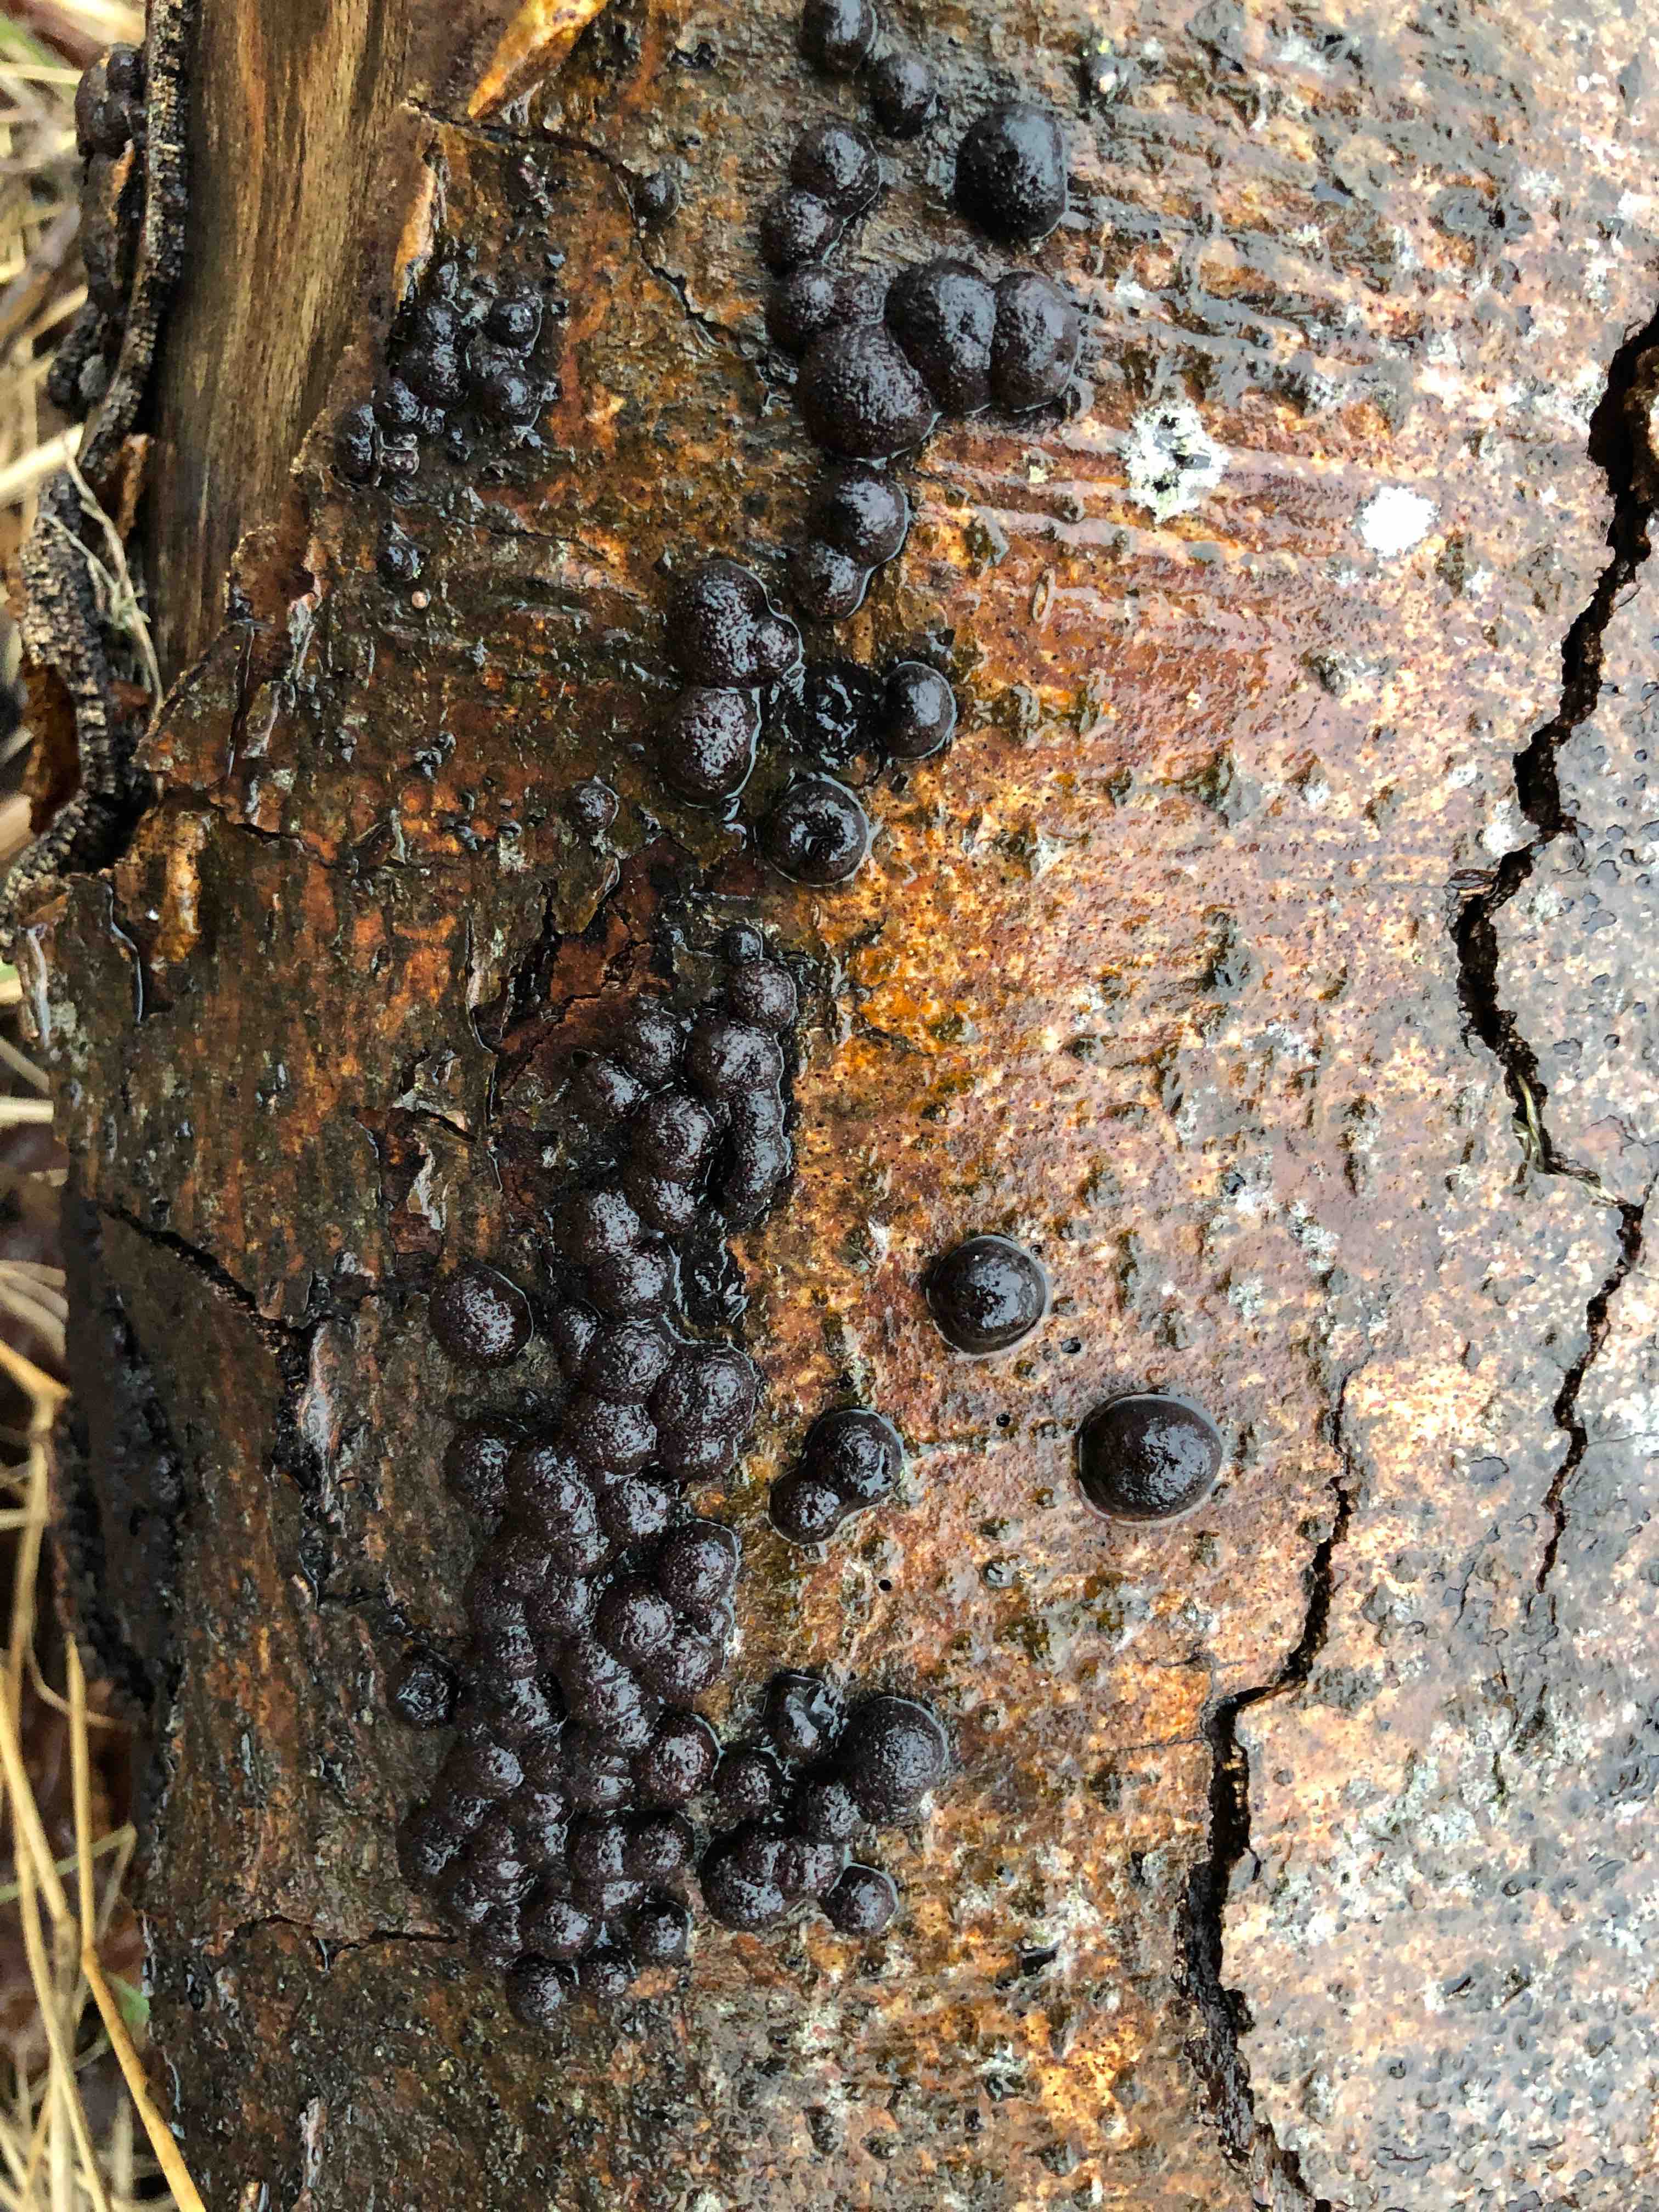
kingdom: Fungi
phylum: Ascomycota
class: Sordariomycetes
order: Xylariales
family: Hypoxylaceae
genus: Hypoxylon
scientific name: Hypoxylon fragiforme
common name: kuljordbær
